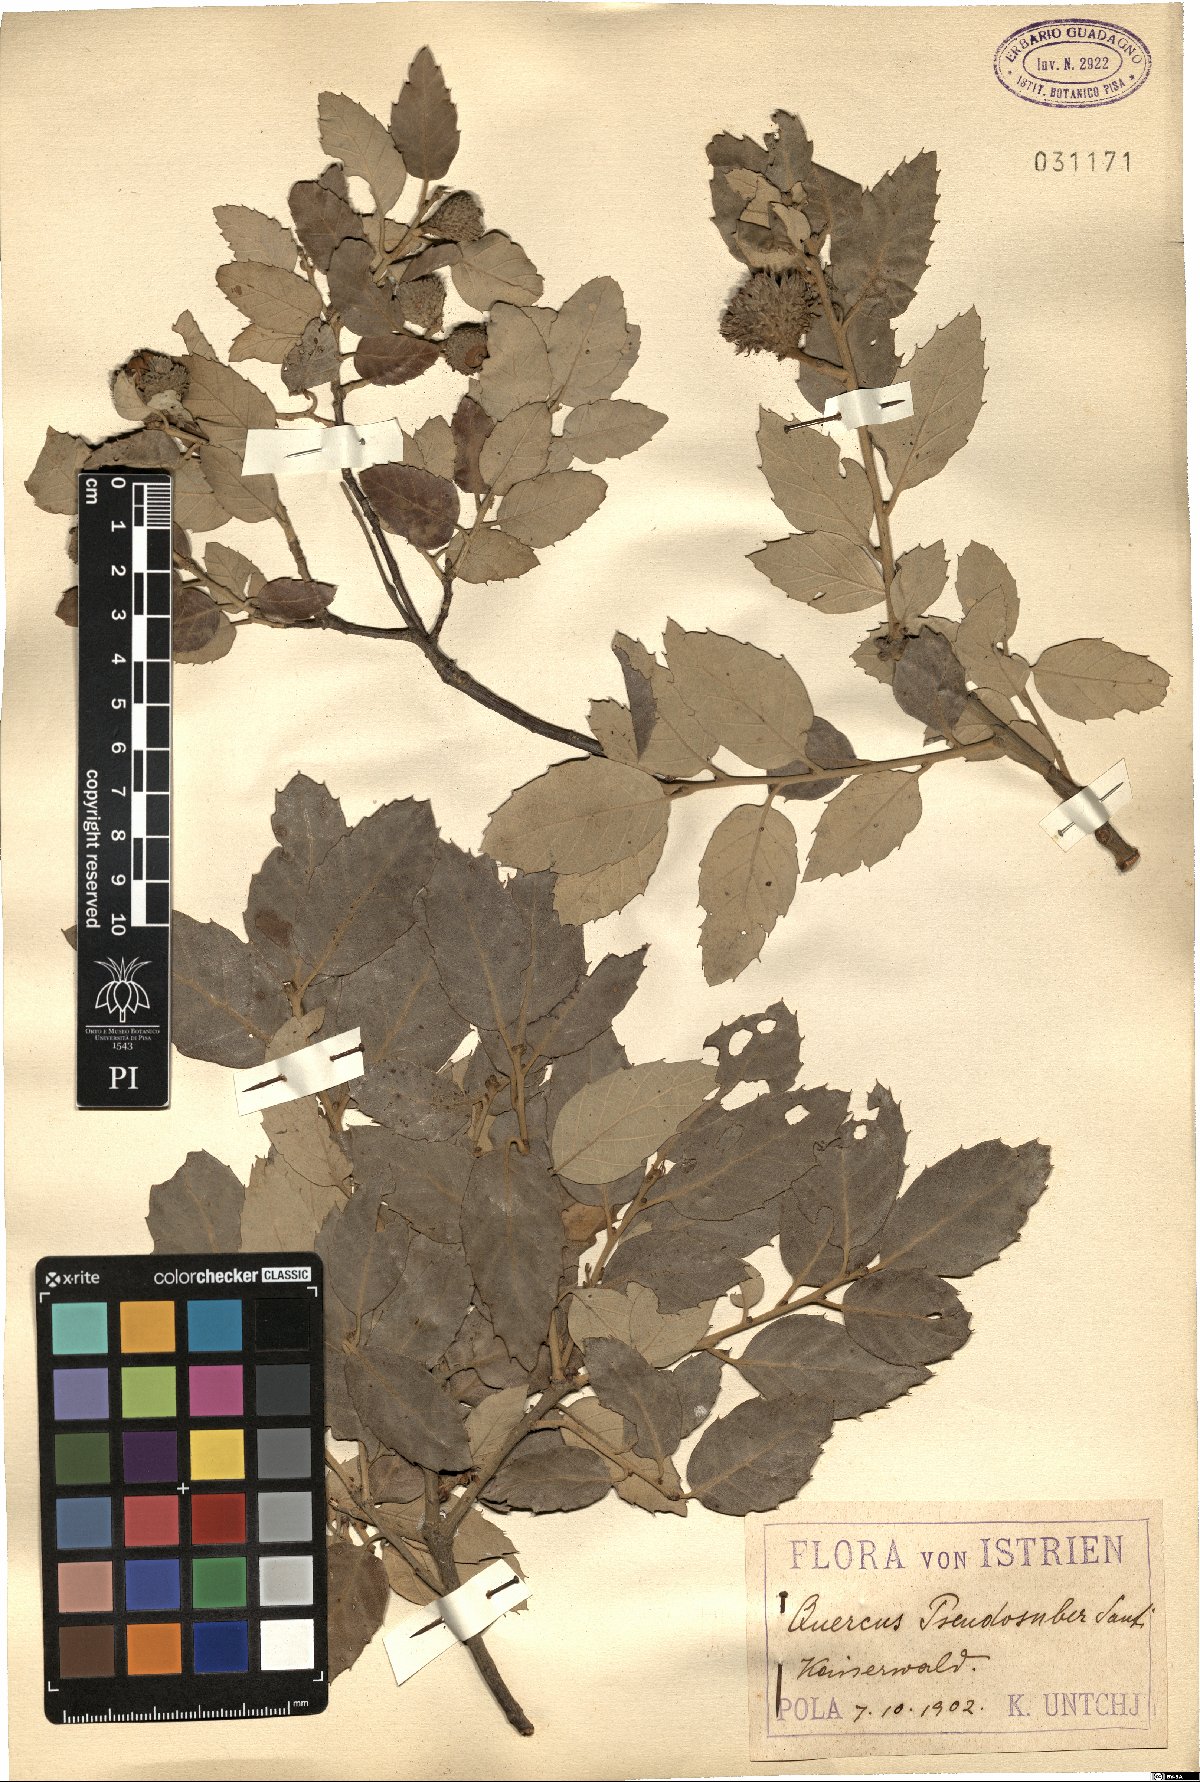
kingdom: Plantae
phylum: Tracheophyta
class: Magnoliopsida
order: Fagales
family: Fagaceae
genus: Quercus
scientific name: Quercus crenata
